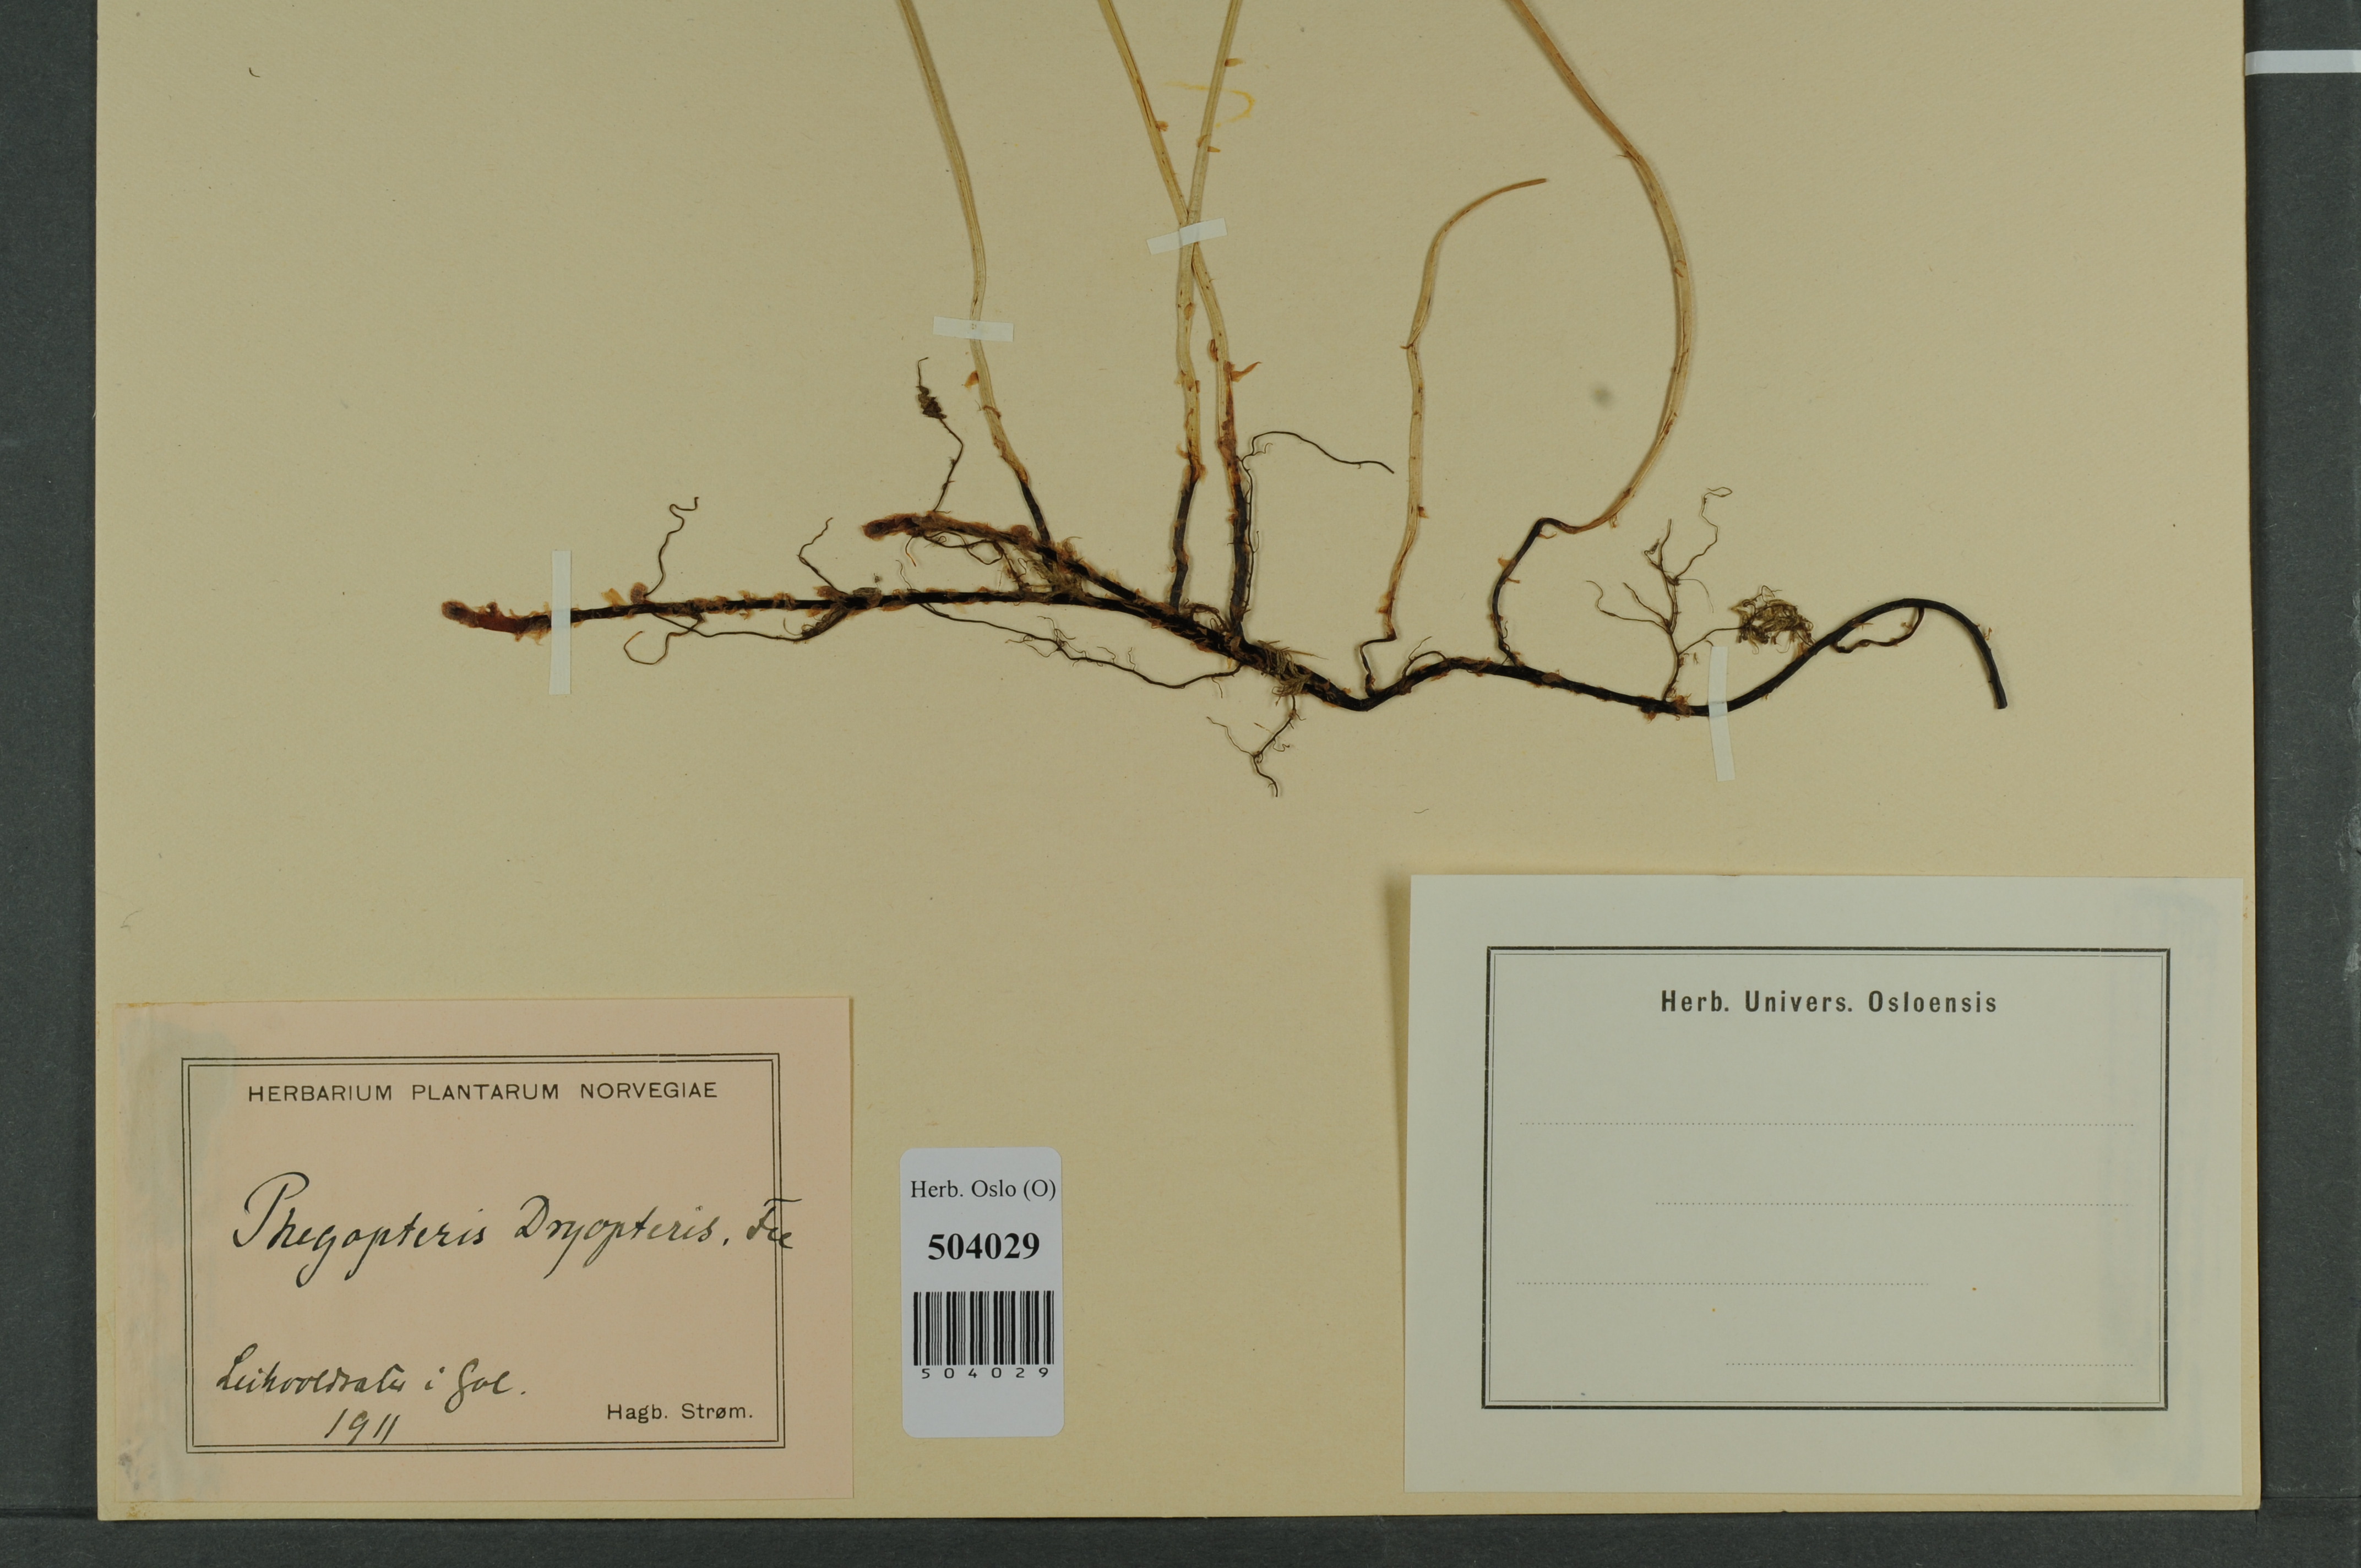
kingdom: Plantae
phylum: Tracheophyta
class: Polypodiopsida
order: Polypodiales
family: Cystopteridaceae
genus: Gymnocarpium
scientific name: Gymnocarpium dryopteris
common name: Oak fern
